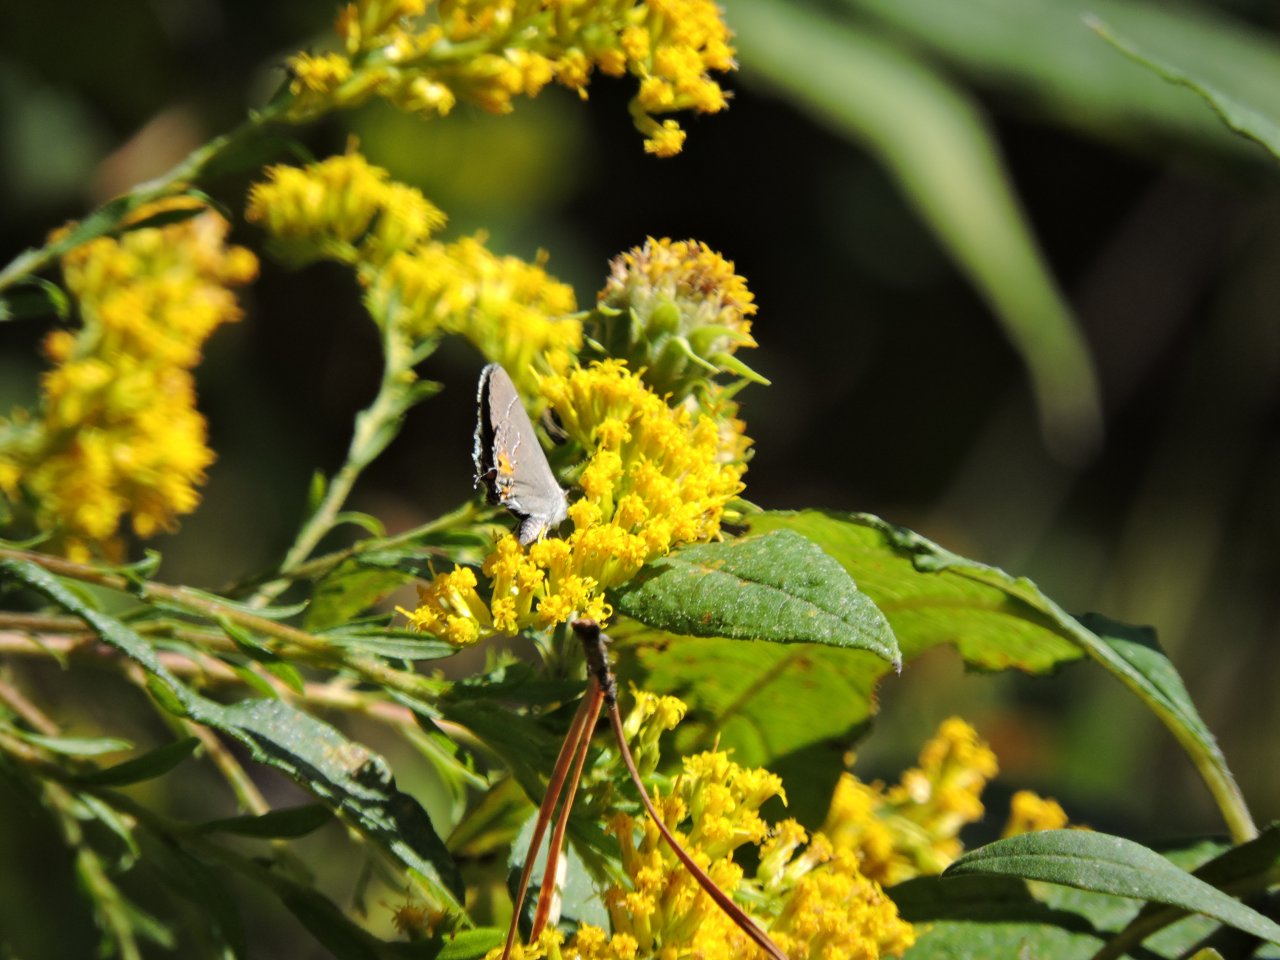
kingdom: Animalia
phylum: Arthropoda
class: Insecta
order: Lepidoptera
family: Lycaenidae
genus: Strymon
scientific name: Strymon melinus
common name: Gray Hairstreak
